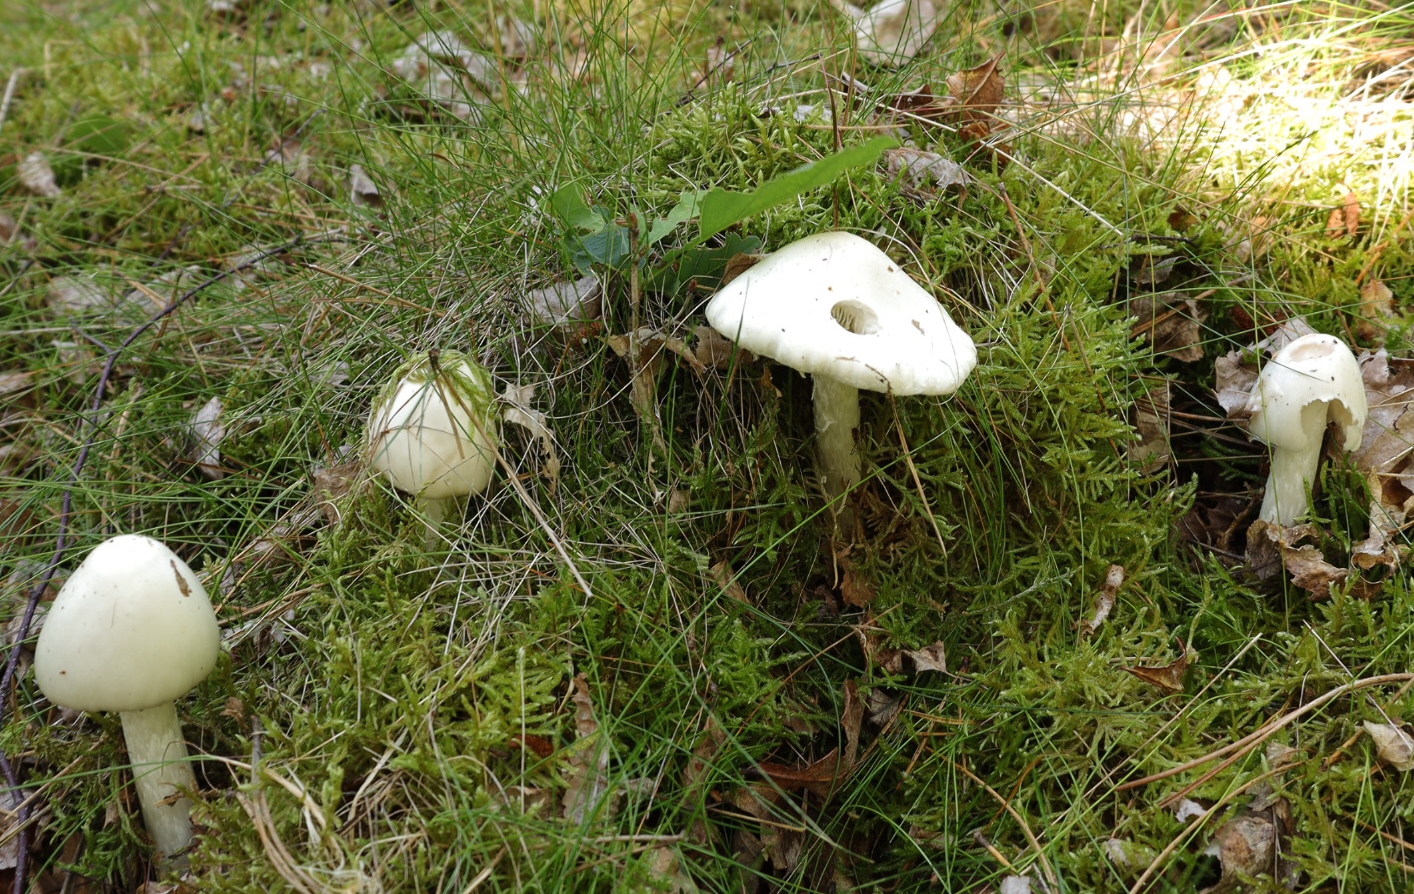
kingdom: Fungi
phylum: Basidiomycota
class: Agaricomycetes
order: Agaricales
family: Amanitaceae
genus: Amanita
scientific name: Amanita virosa
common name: snehvid fluesvamp
